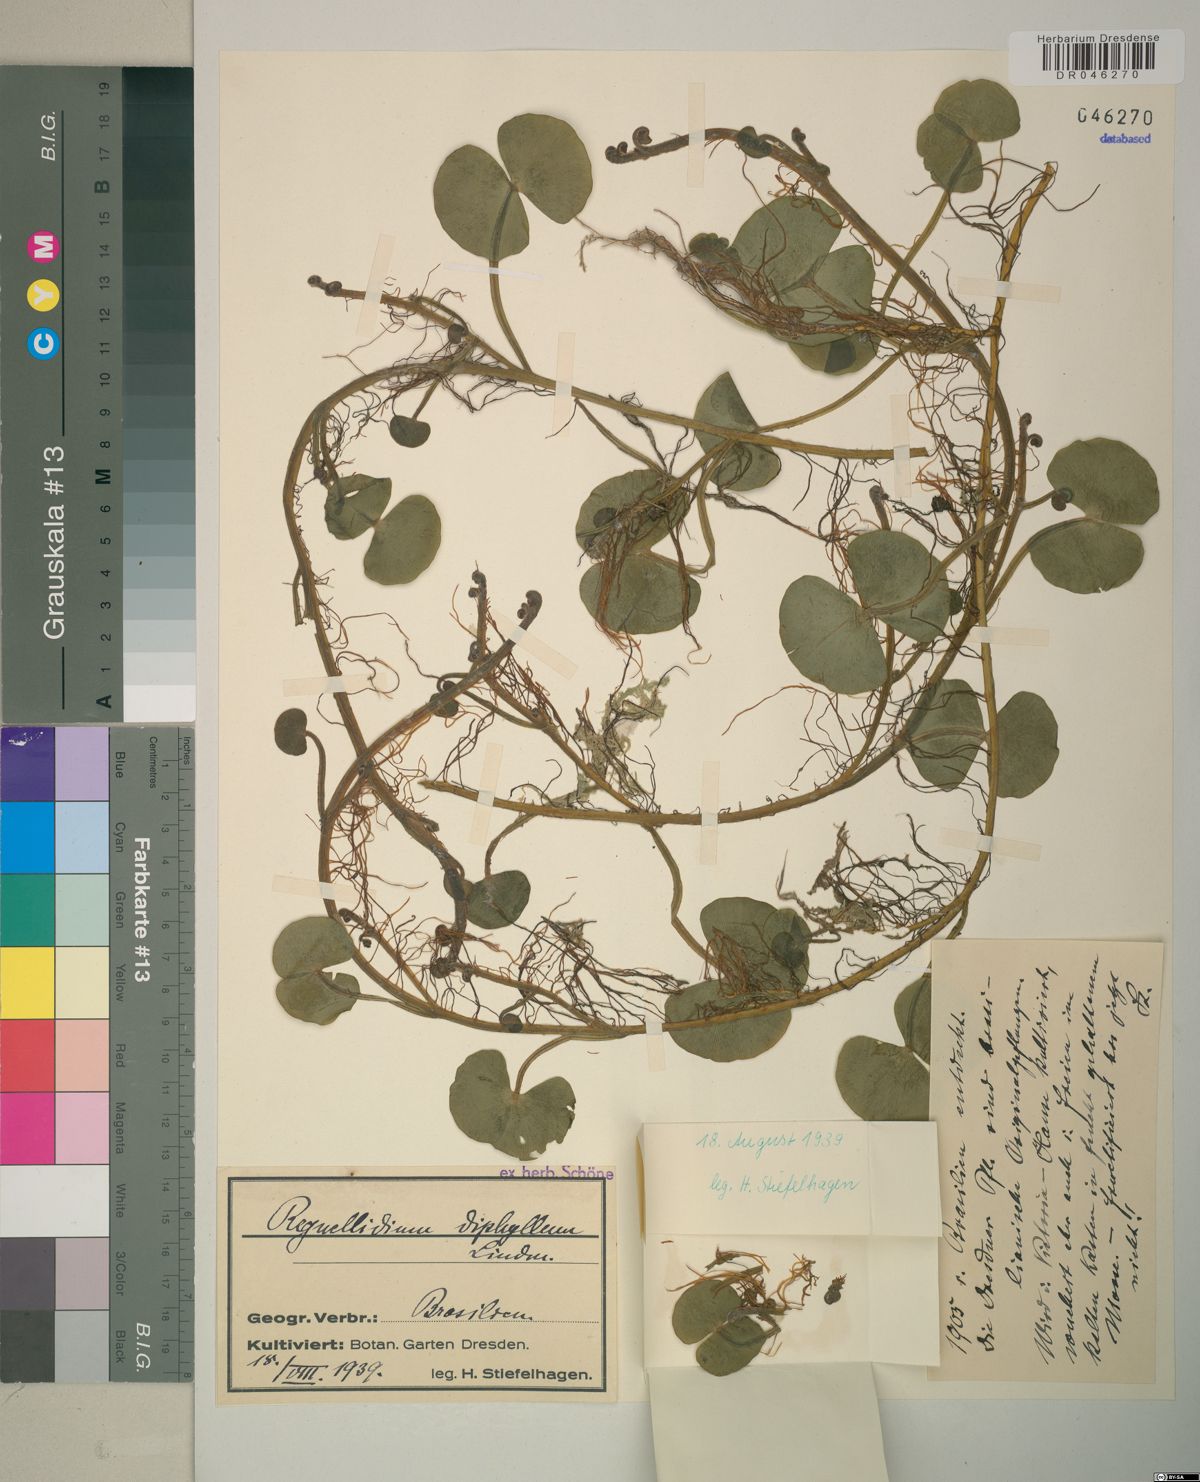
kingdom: Plantae
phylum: Tracheophyta
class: Polypodiopsida
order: Salviniales
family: Marsileaceae
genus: Regnellidium
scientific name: Regnellidium diphyllum
